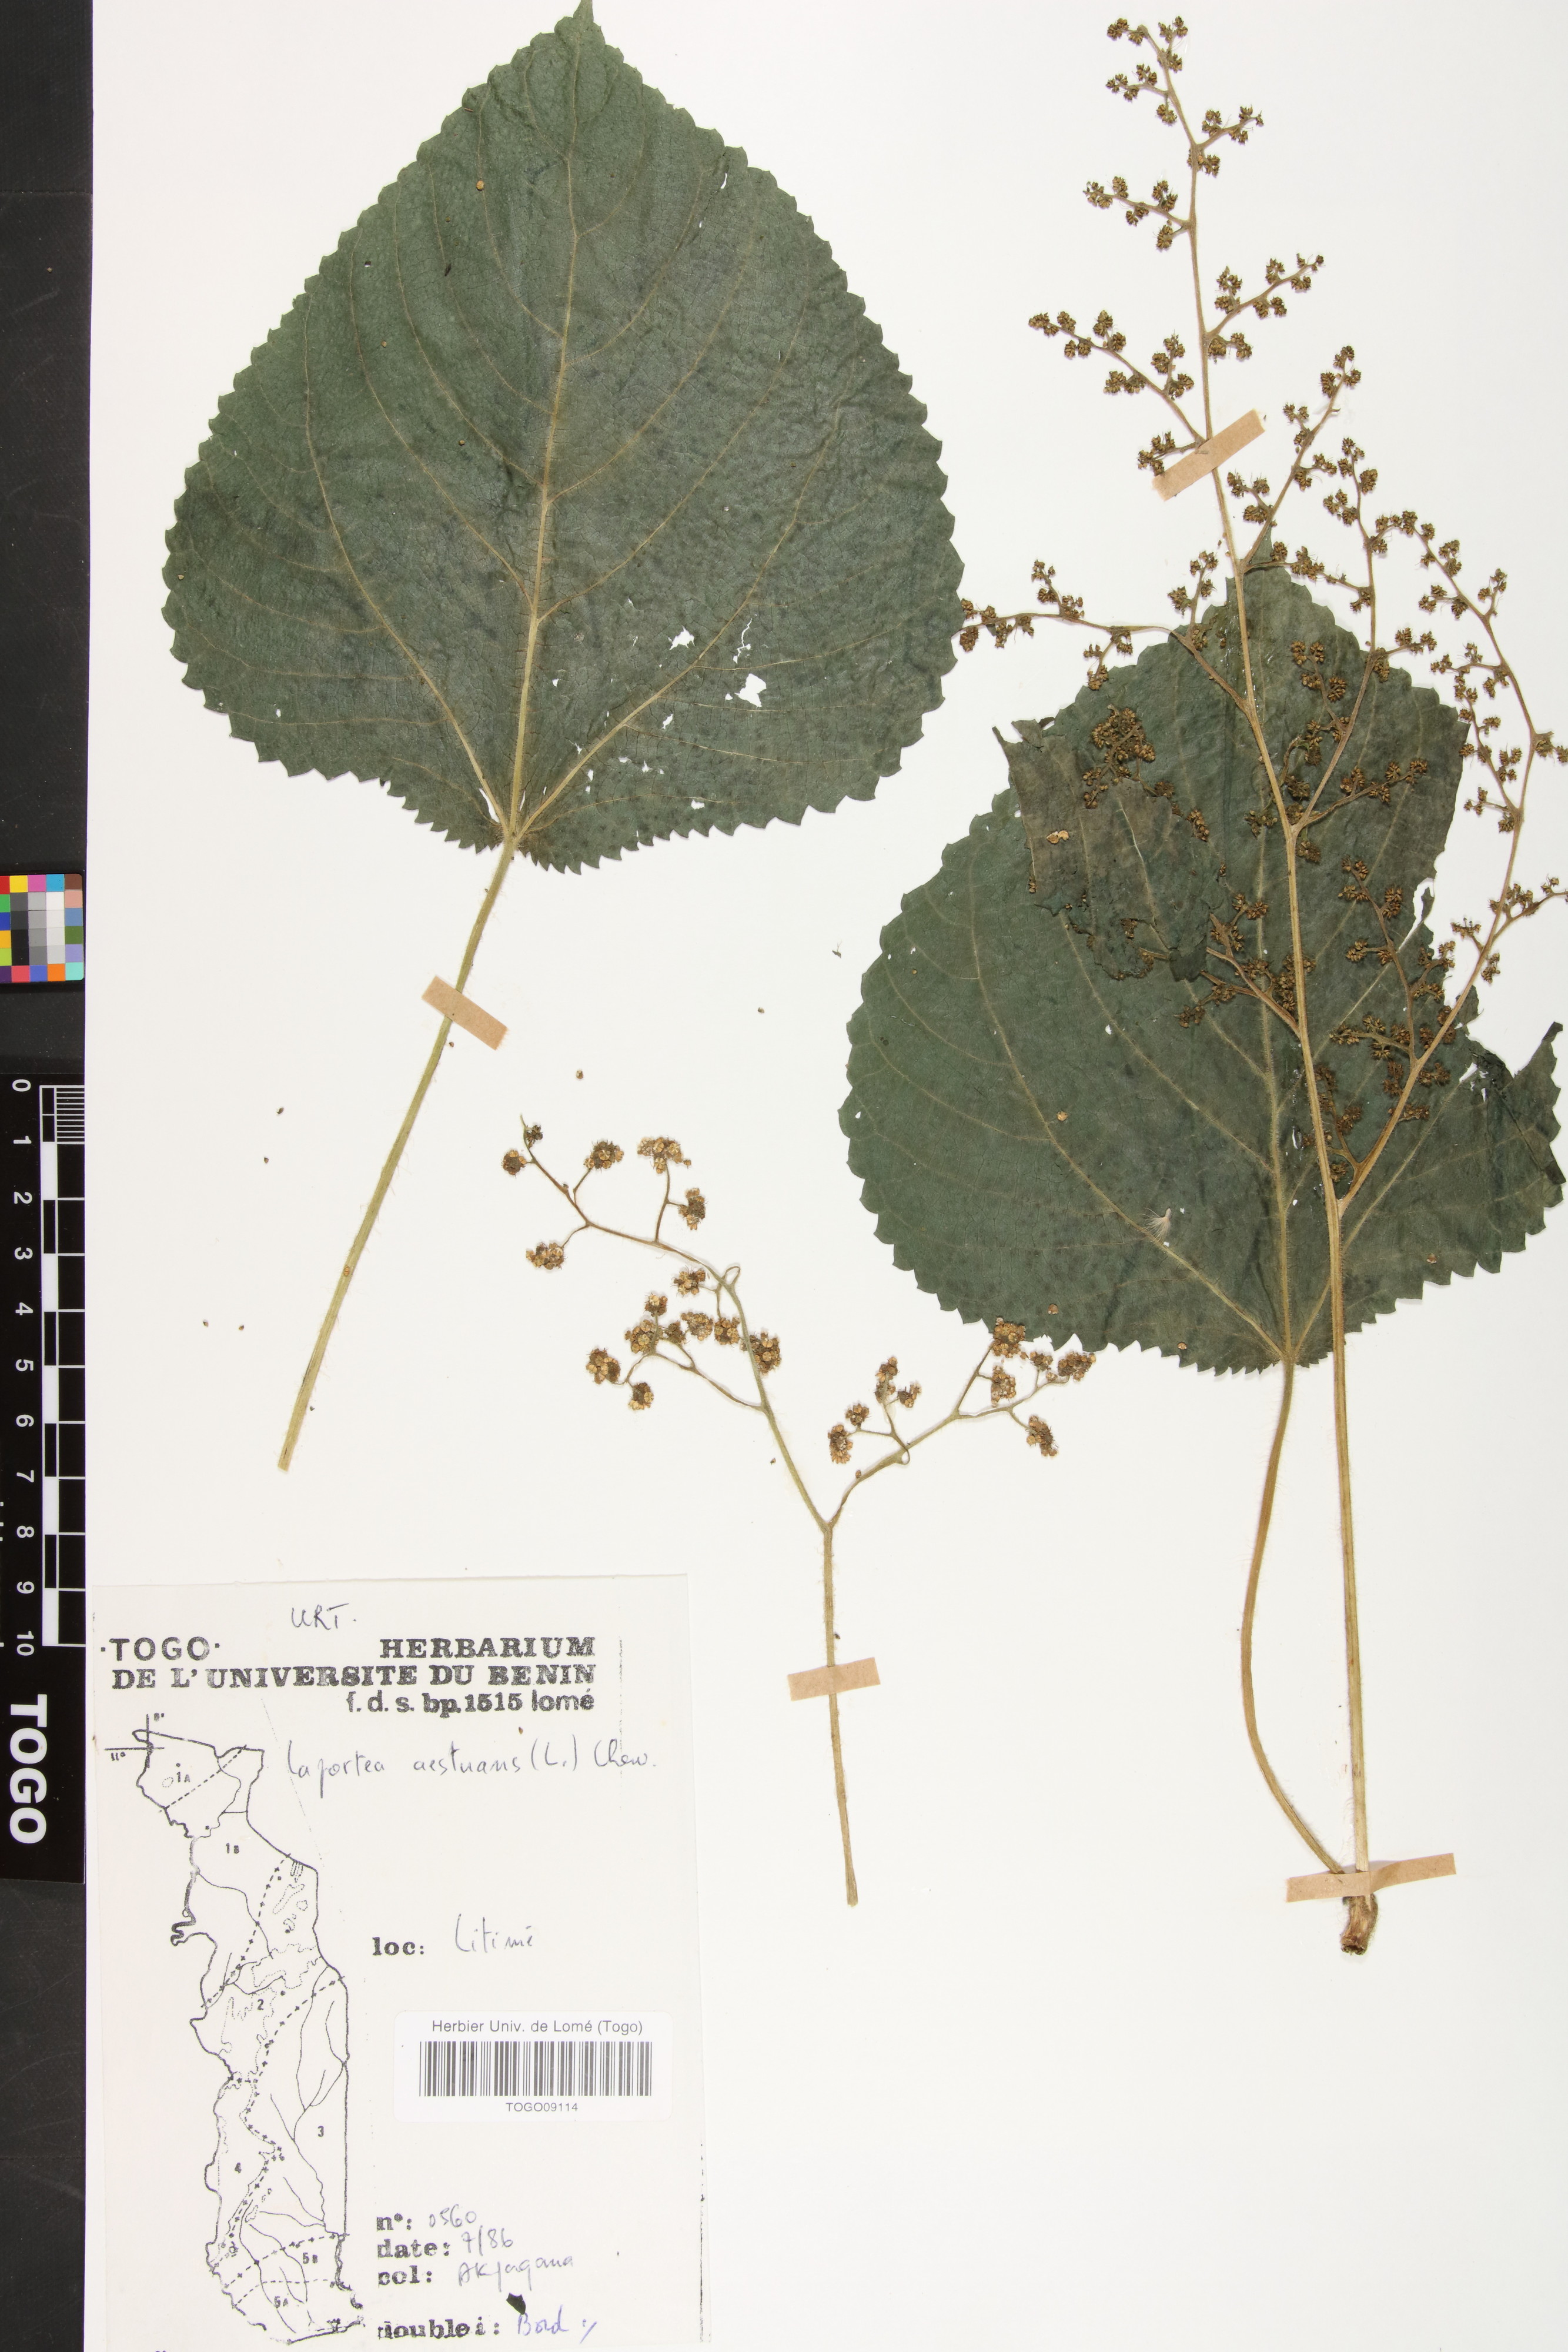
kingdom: Plantae
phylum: Tracheophyta
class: Magnoliopsida
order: Rosales
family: Urticaceae
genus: Laportea
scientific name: Laportea aestuans
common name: West indian woodnettle
